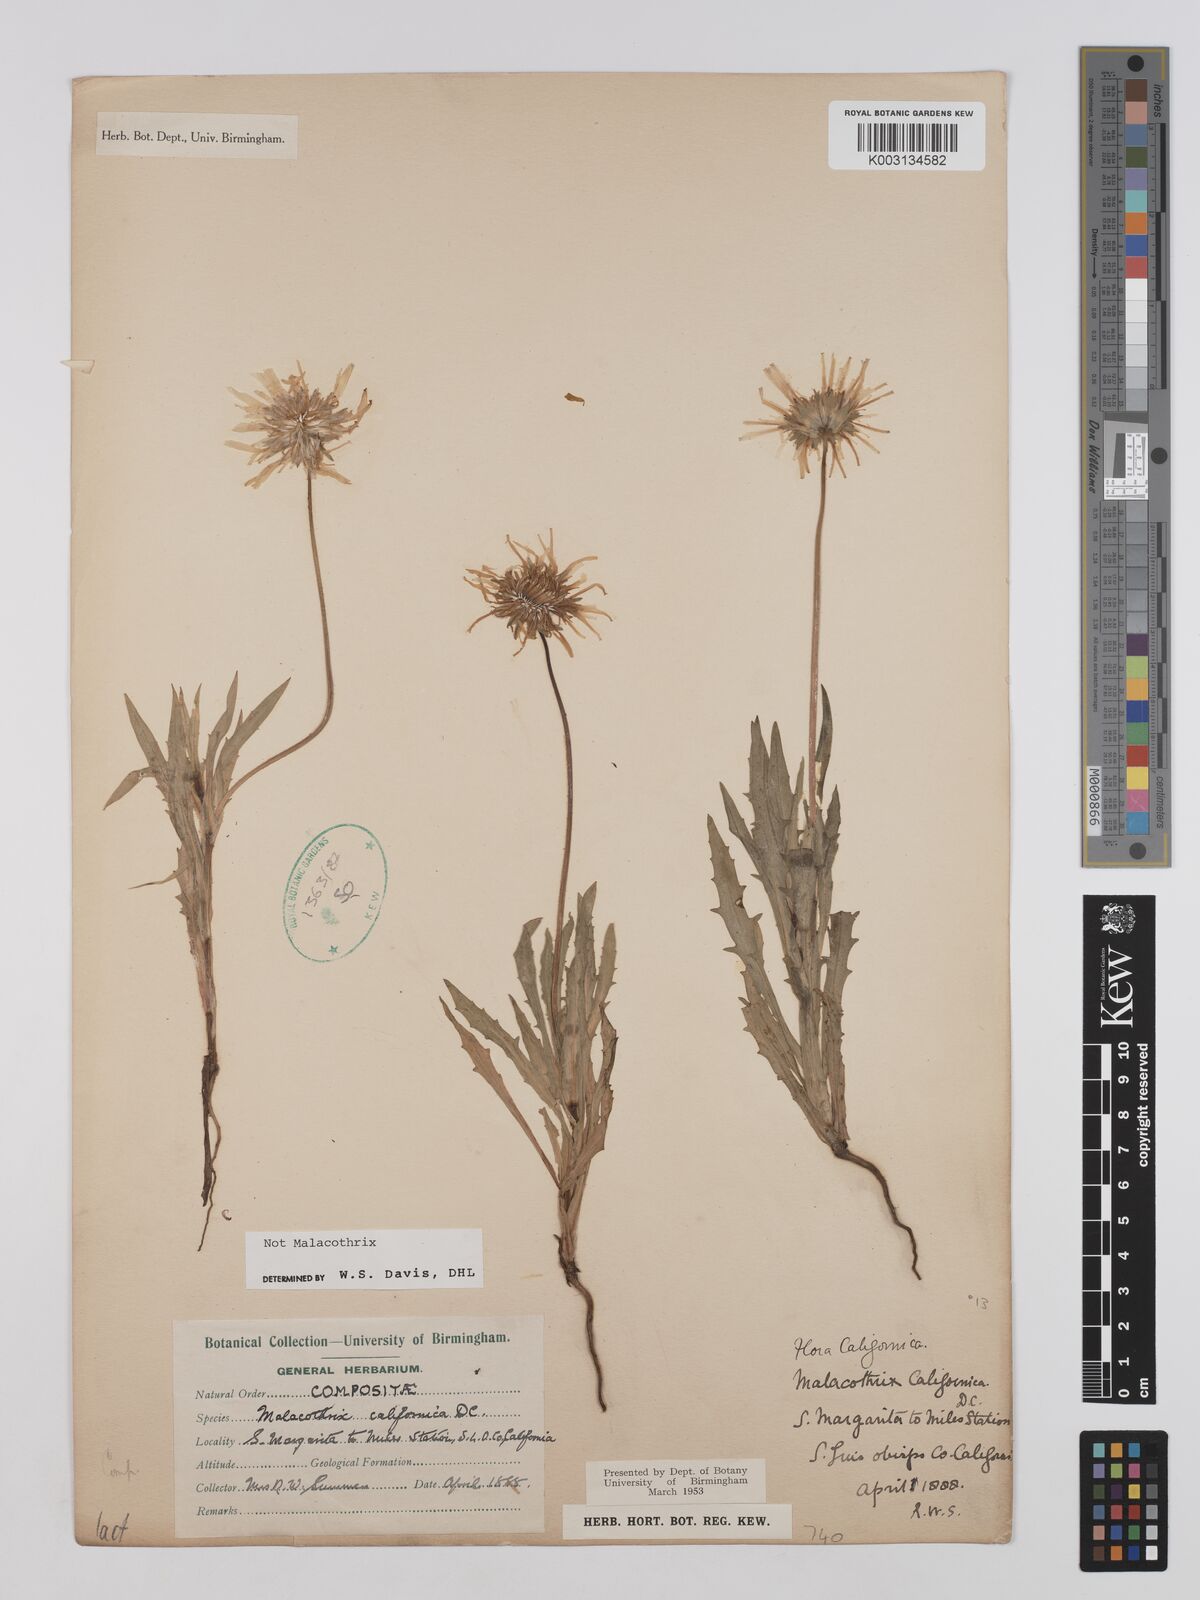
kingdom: Plantae
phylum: Tracheophyta
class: Magnoliopsida
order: Asterales
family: Asteraceae
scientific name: Asteraceae
